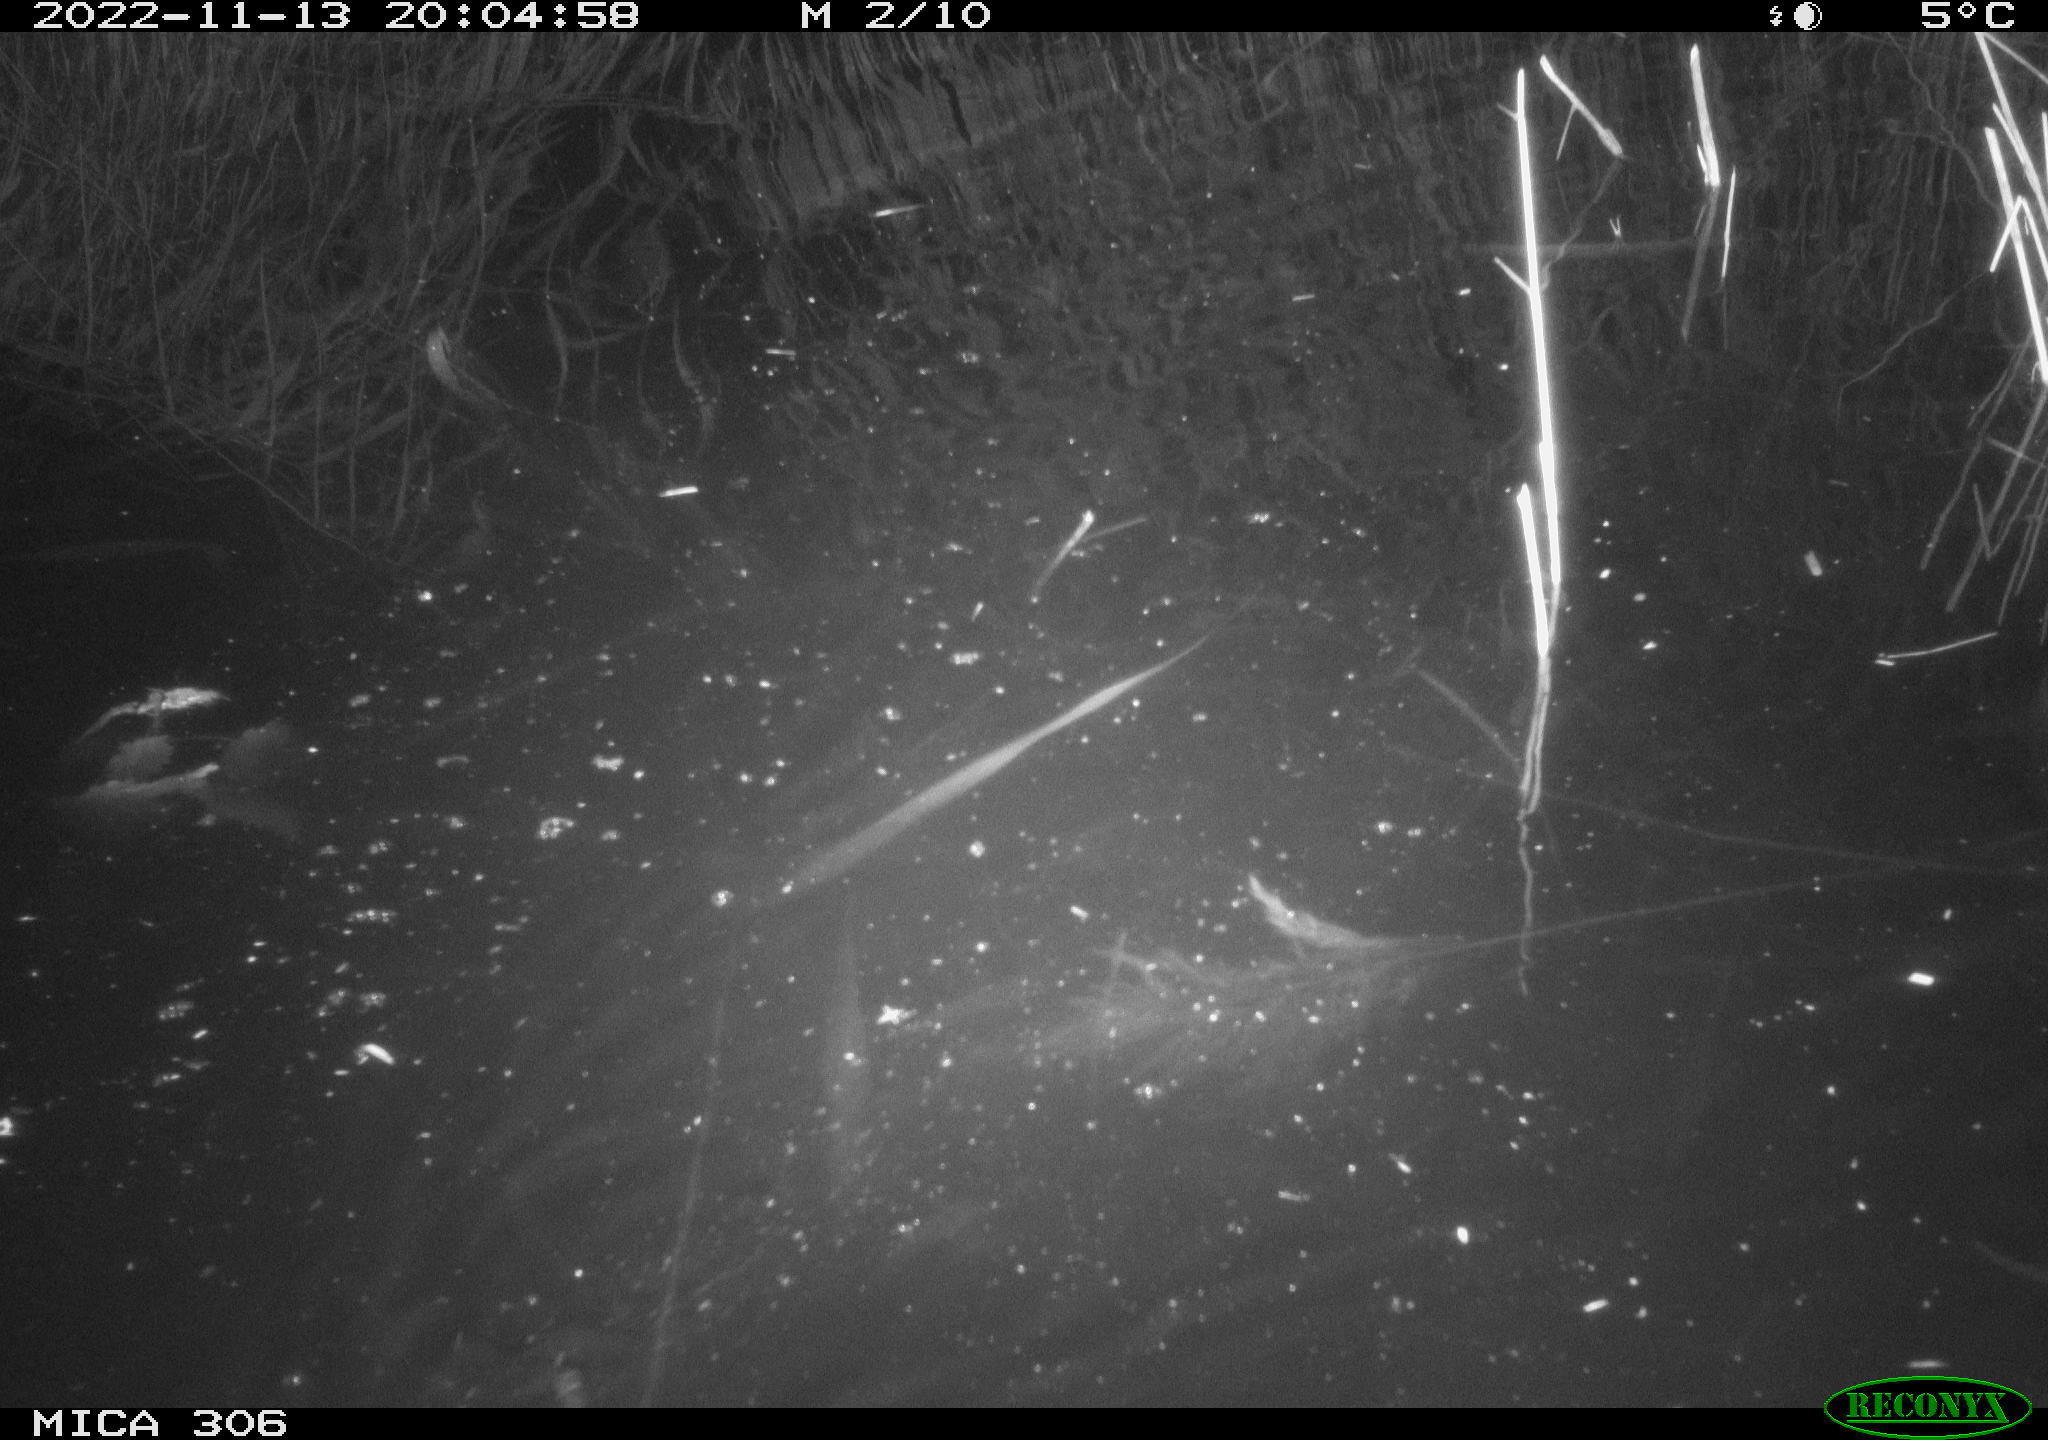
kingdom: Animalia
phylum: Chordata
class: Mammalia
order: Rodentia
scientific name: Rodentia
